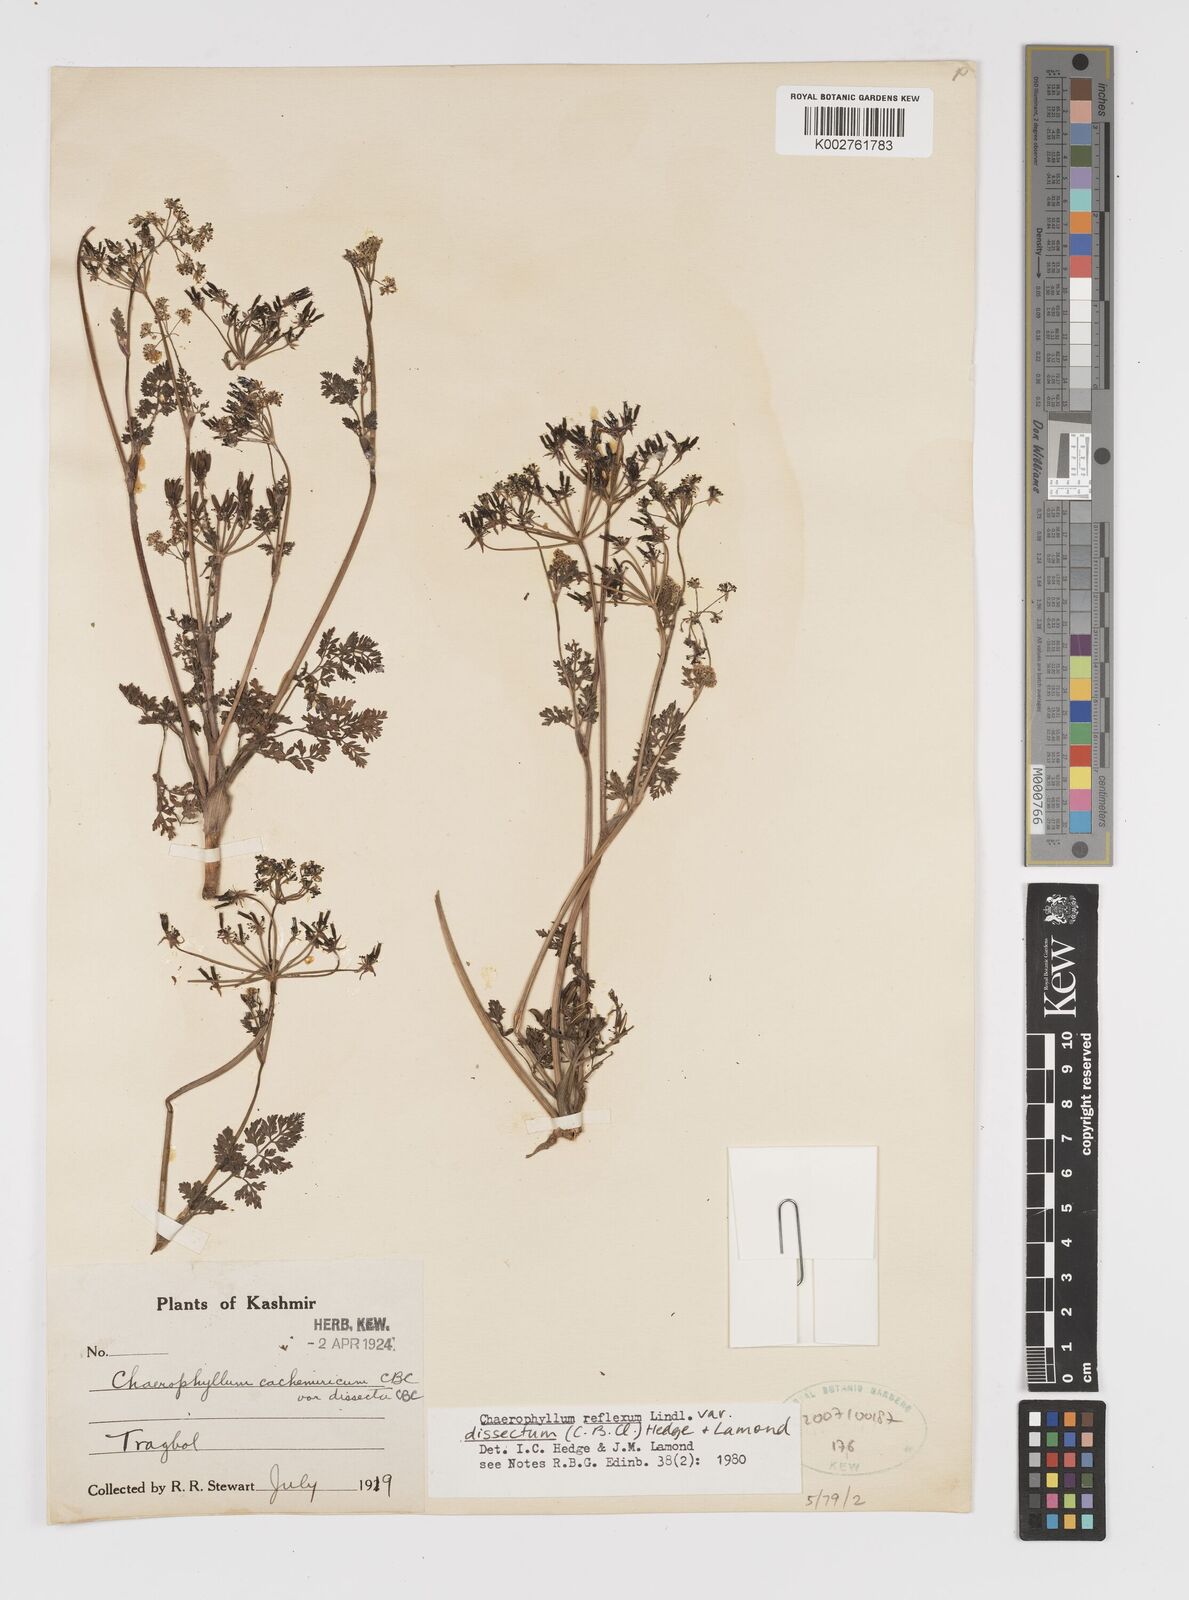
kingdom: Plantae
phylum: Tracheophyta
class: Magnoliopsida
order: Apiales
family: Apiaceae
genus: Chaerophyllum
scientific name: Chaerophyllum reflexum
